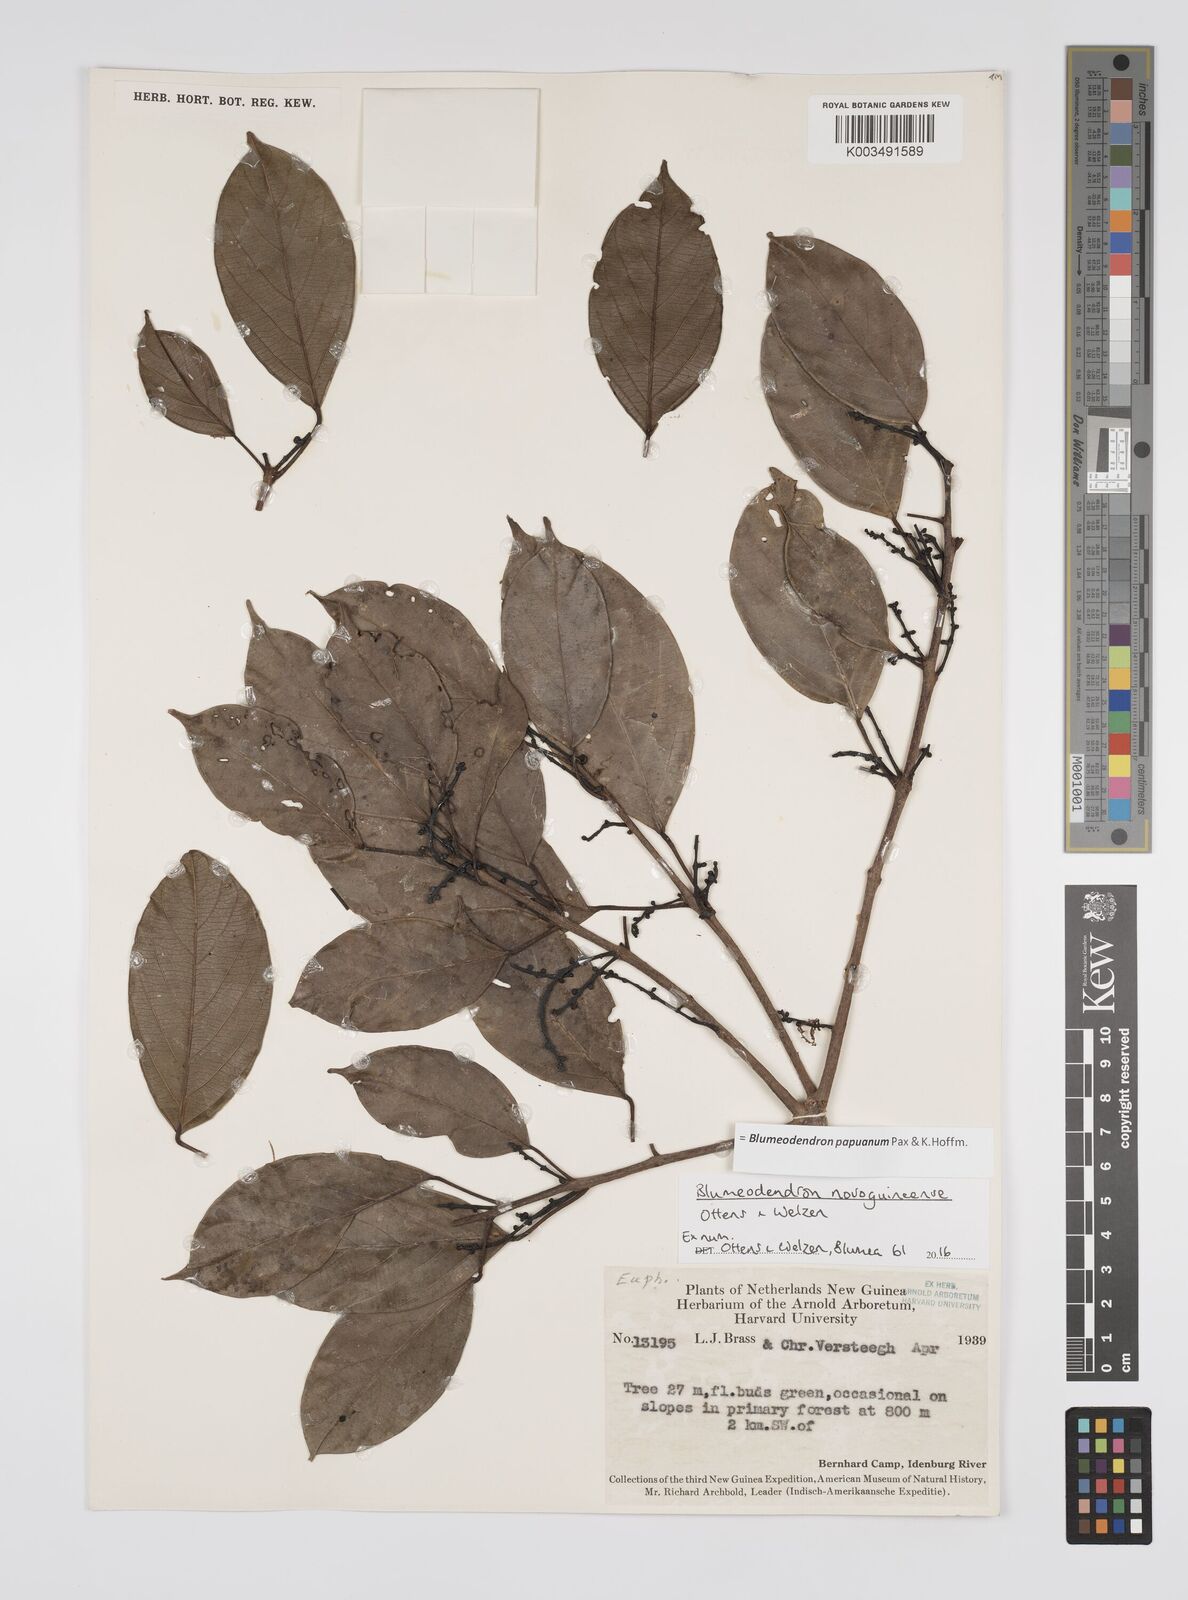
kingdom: Plantae
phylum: Tracheophyta
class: Magnoliopsida
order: Malpighiales
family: Euphorbiaceae
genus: Blumeodendron
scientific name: Blumeodendron papuanum
